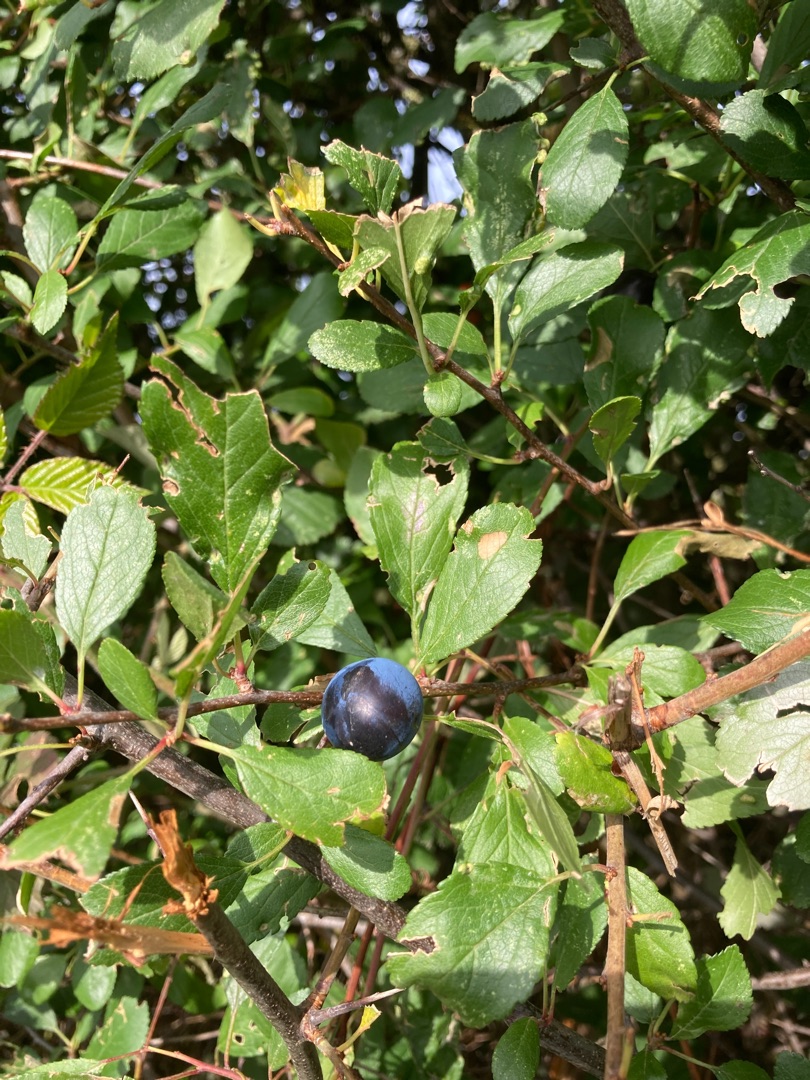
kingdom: Plantae
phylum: Tracheophyta
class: Magnoliopsida
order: Rosales
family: Rosaceae
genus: Prunus
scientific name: Prunus spinosa
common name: Slåen
